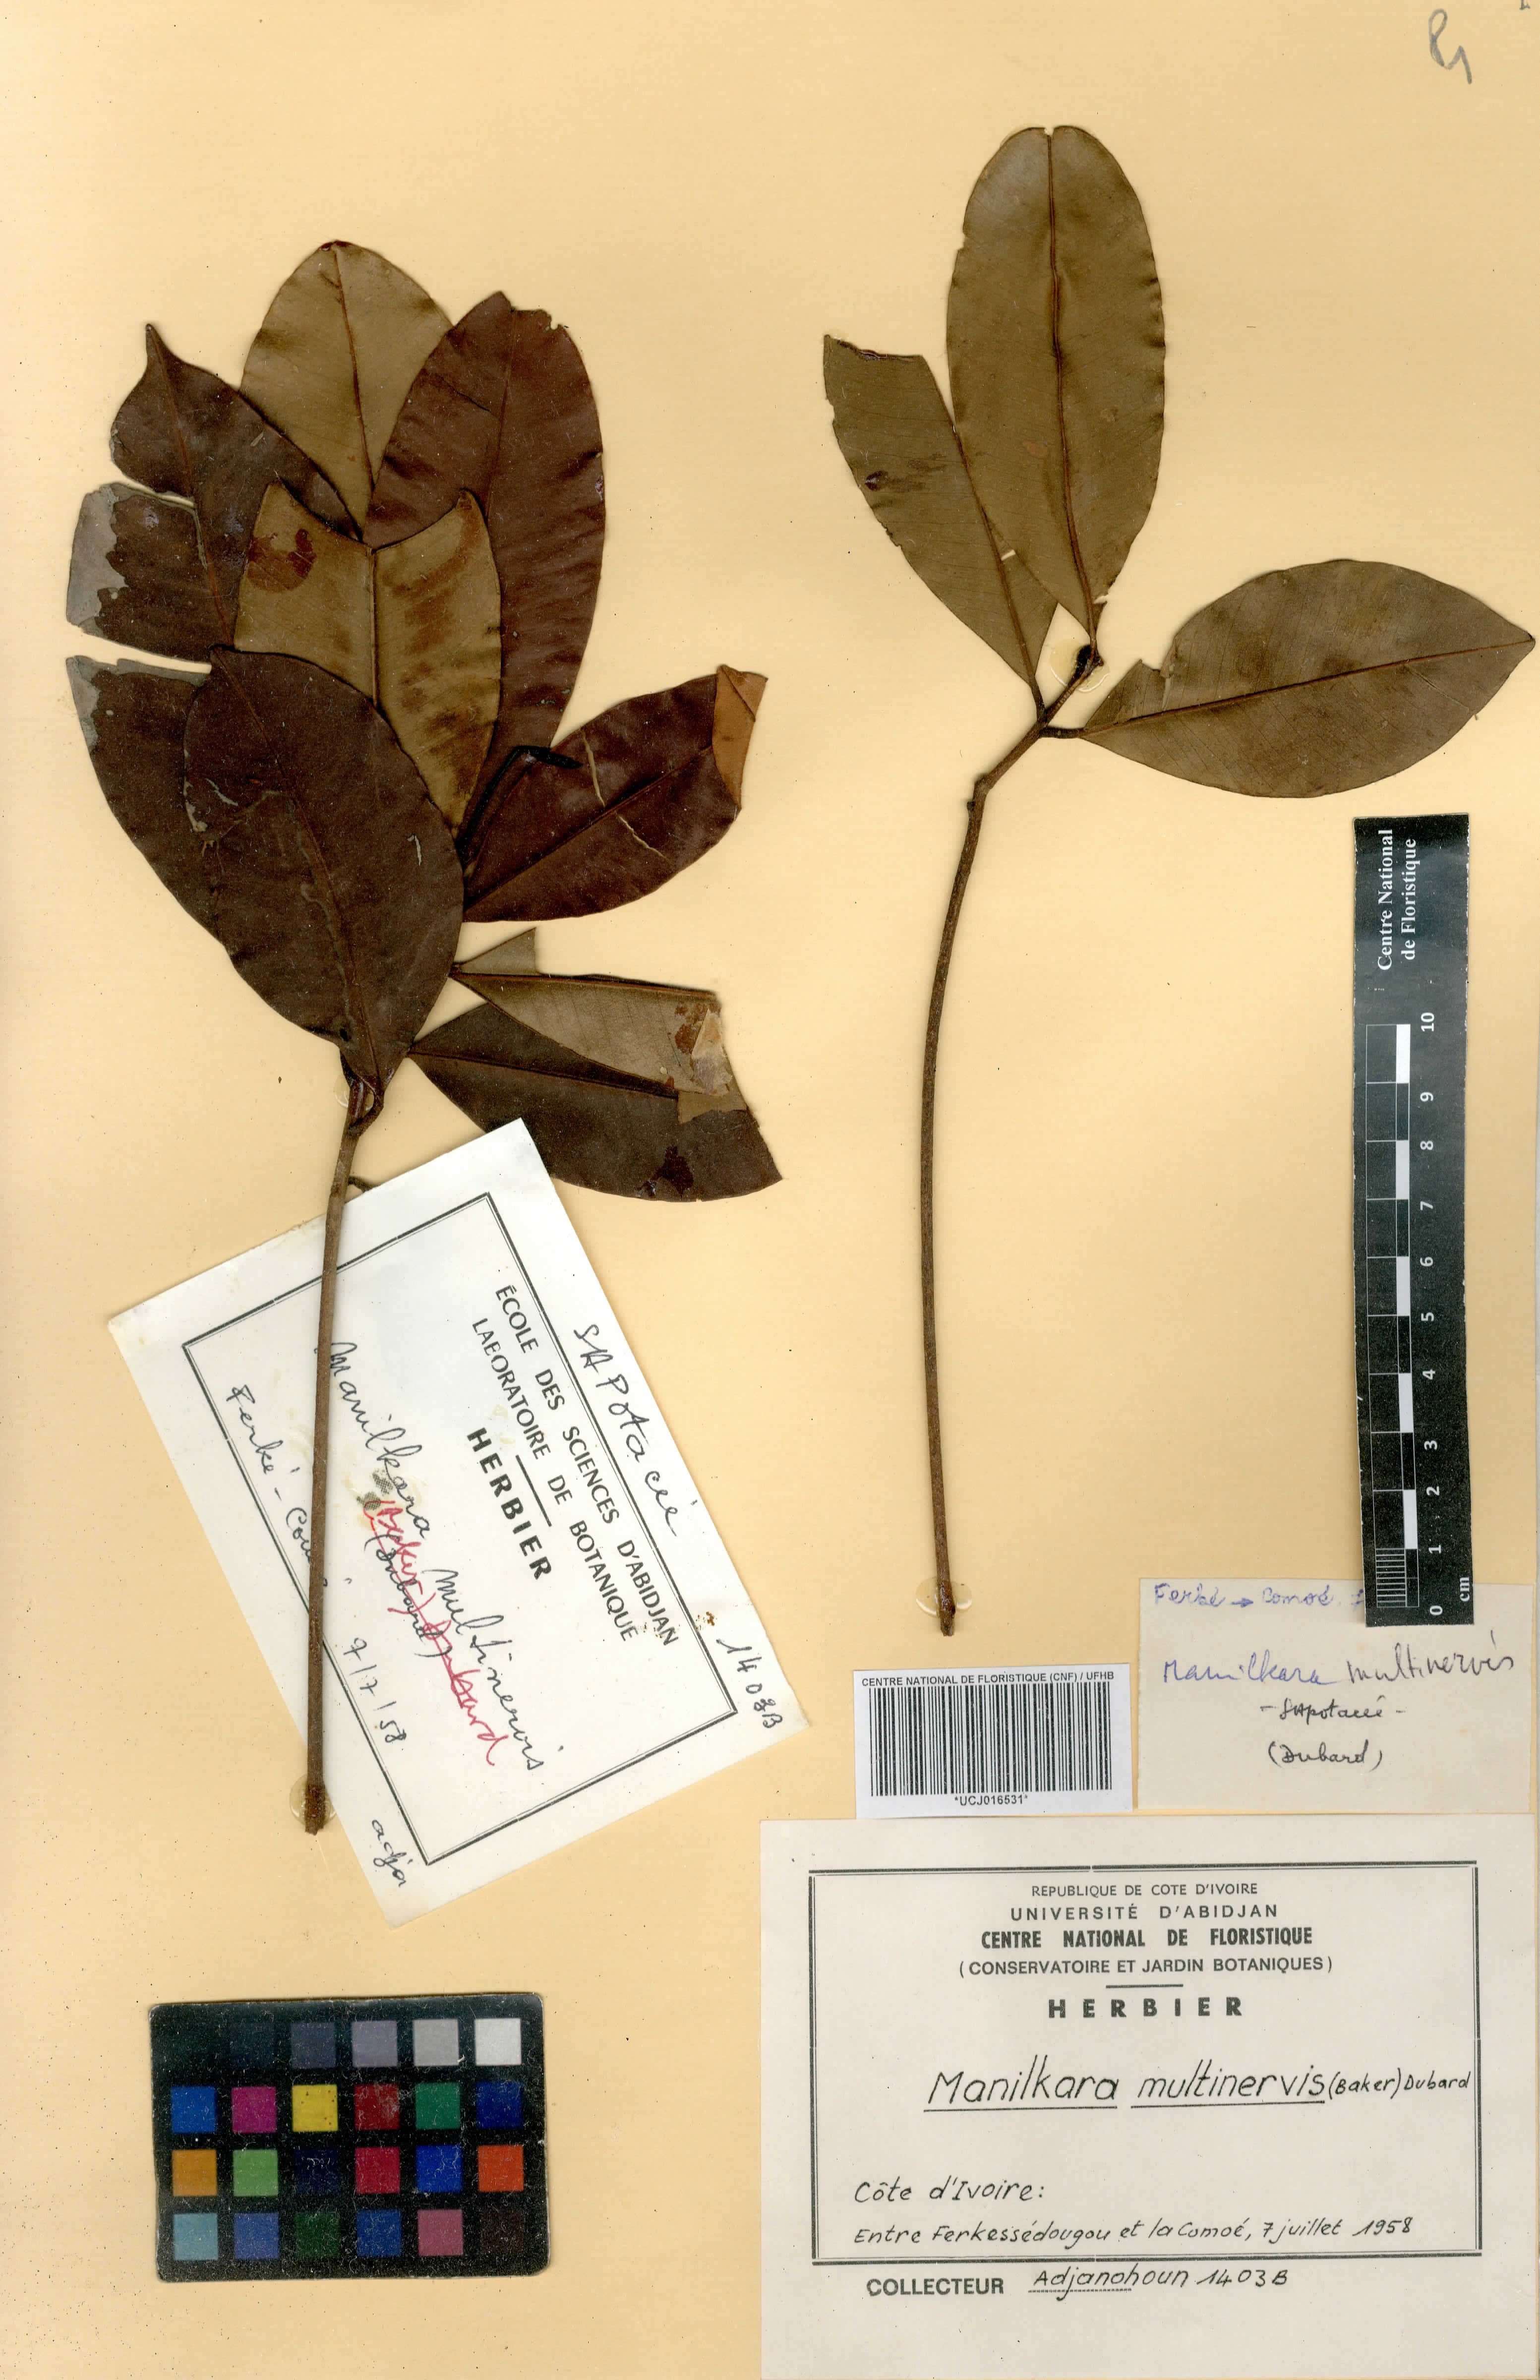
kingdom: Plantae
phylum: Tracheophyta
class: Magnoliopsida
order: Ericales
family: Sapotaceae
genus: Manilkara
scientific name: Manilkara obovata
